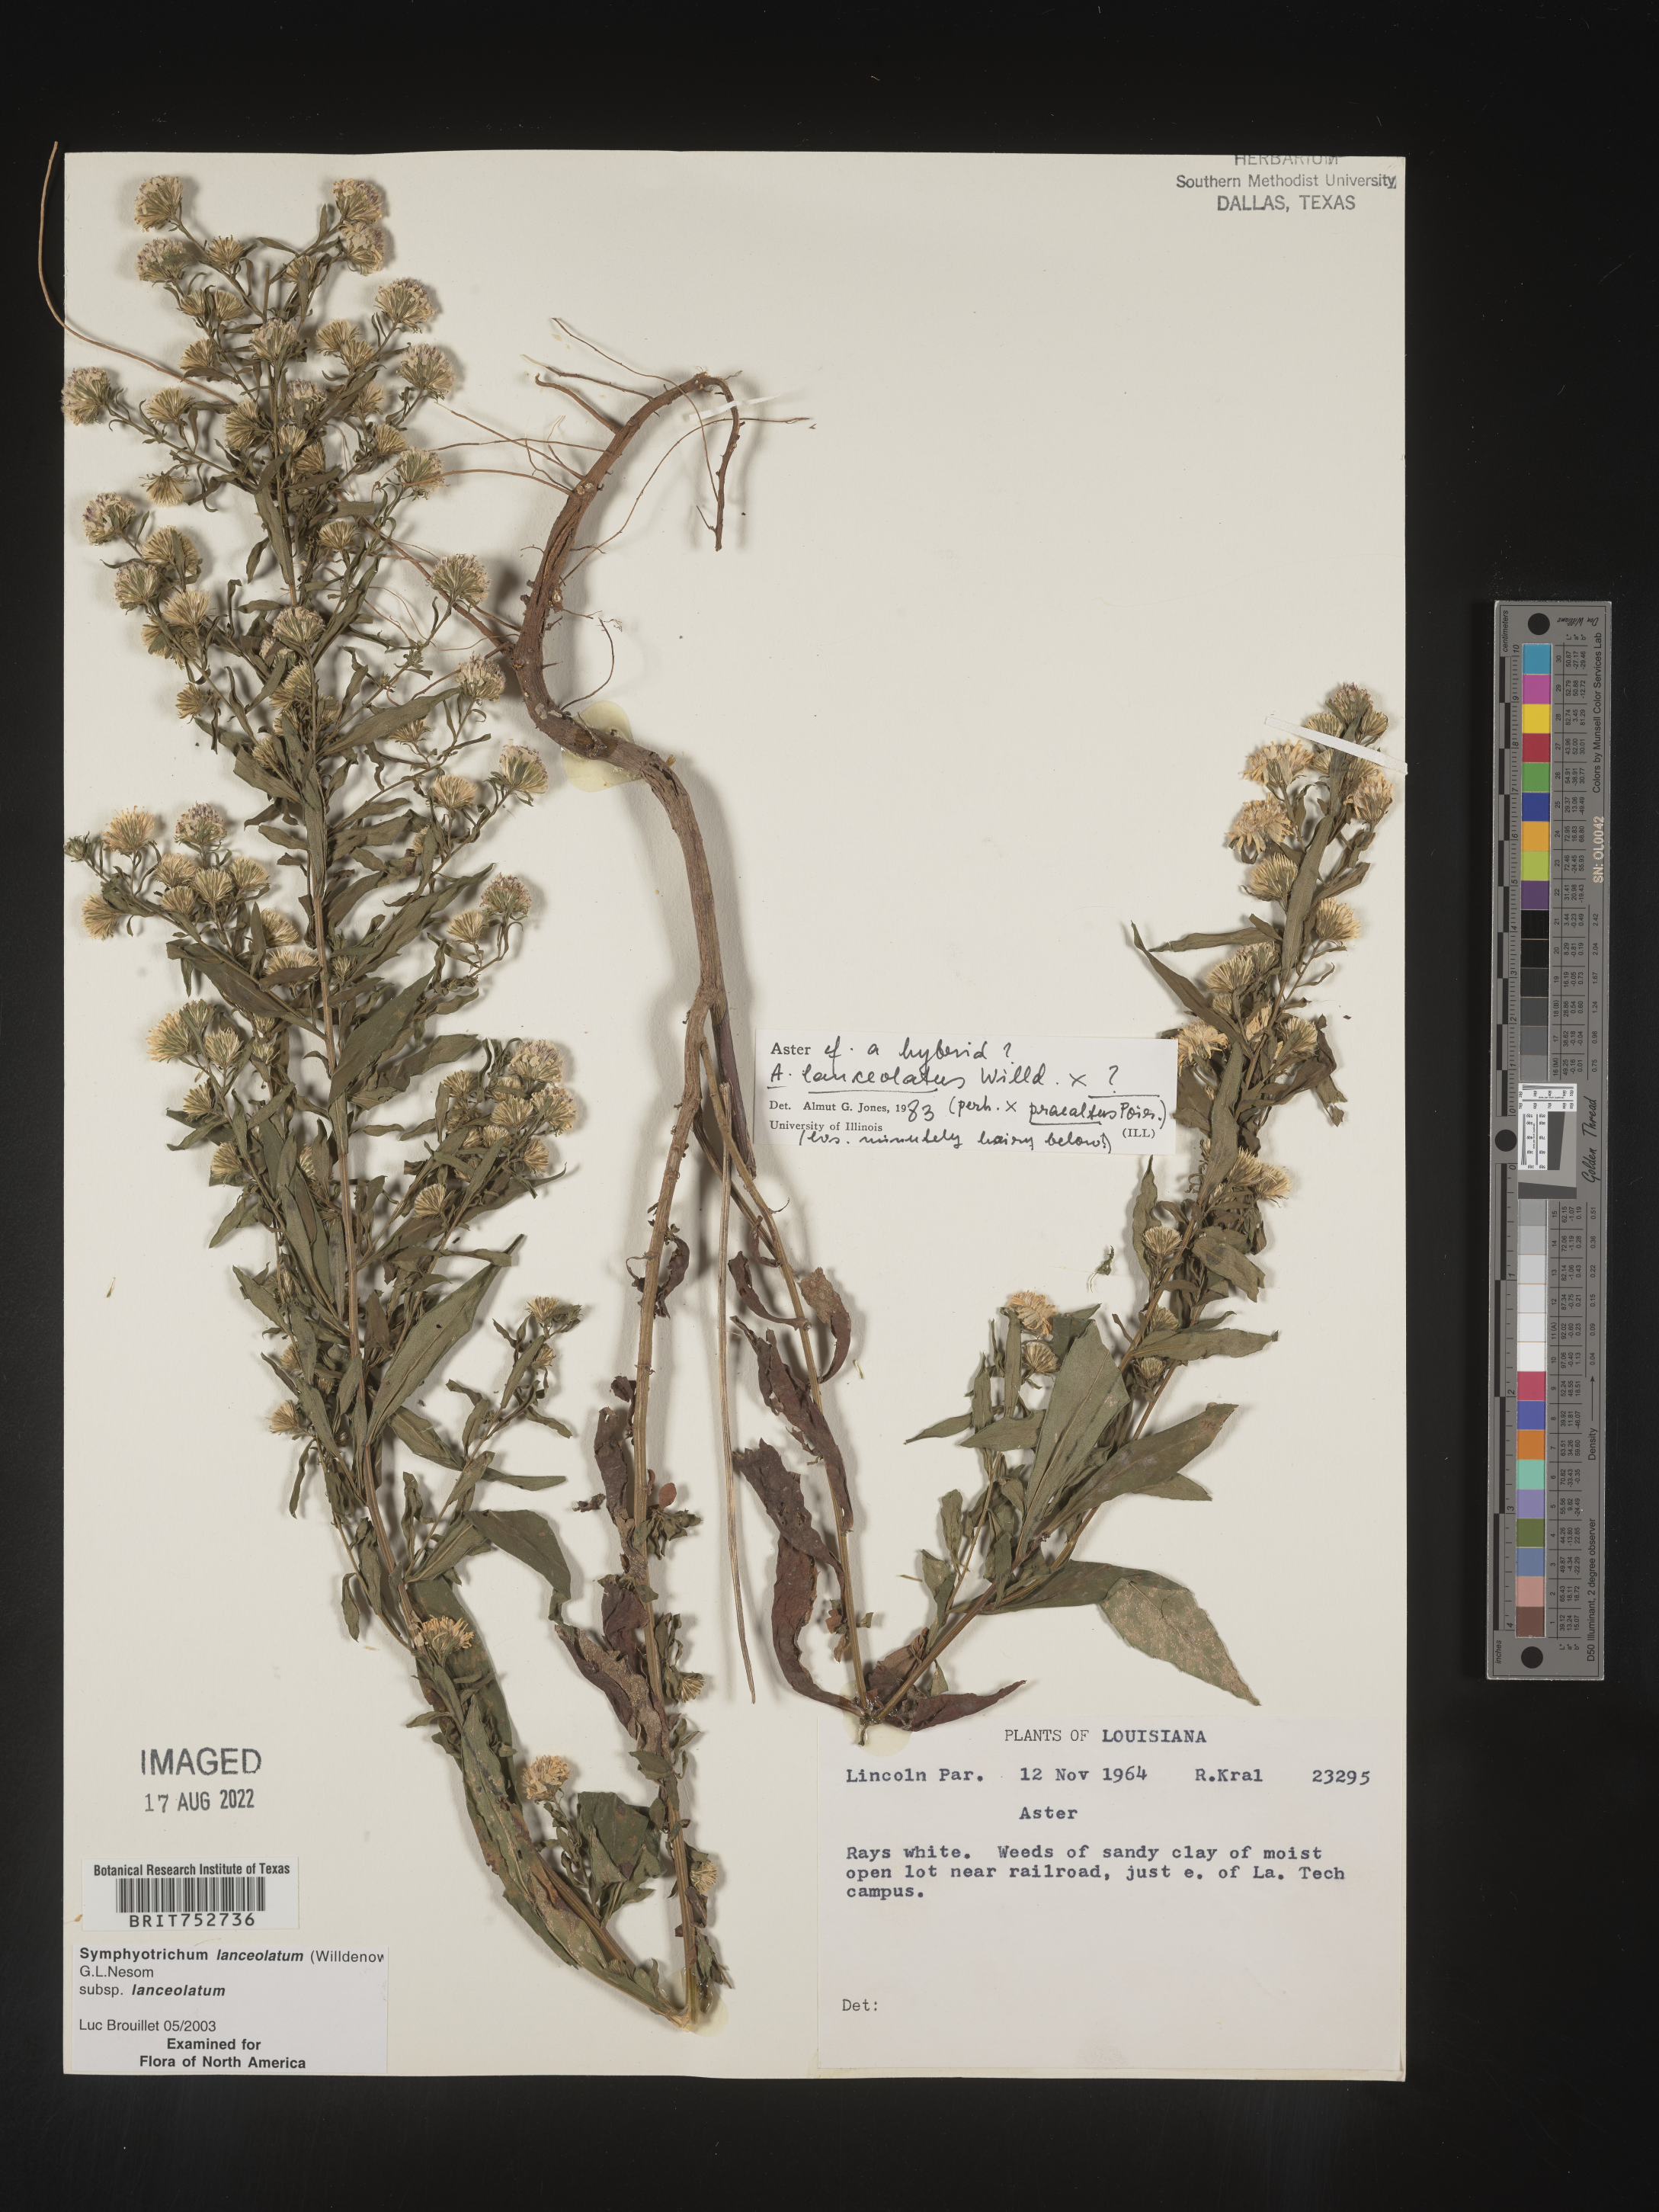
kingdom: Plantae
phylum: Tracheophyta
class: Magnoliopsida
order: Asterales
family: Asteraceae
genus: Symphyotrichum
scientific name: Symphyotrichum lanceolatum
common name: Panicled aster
